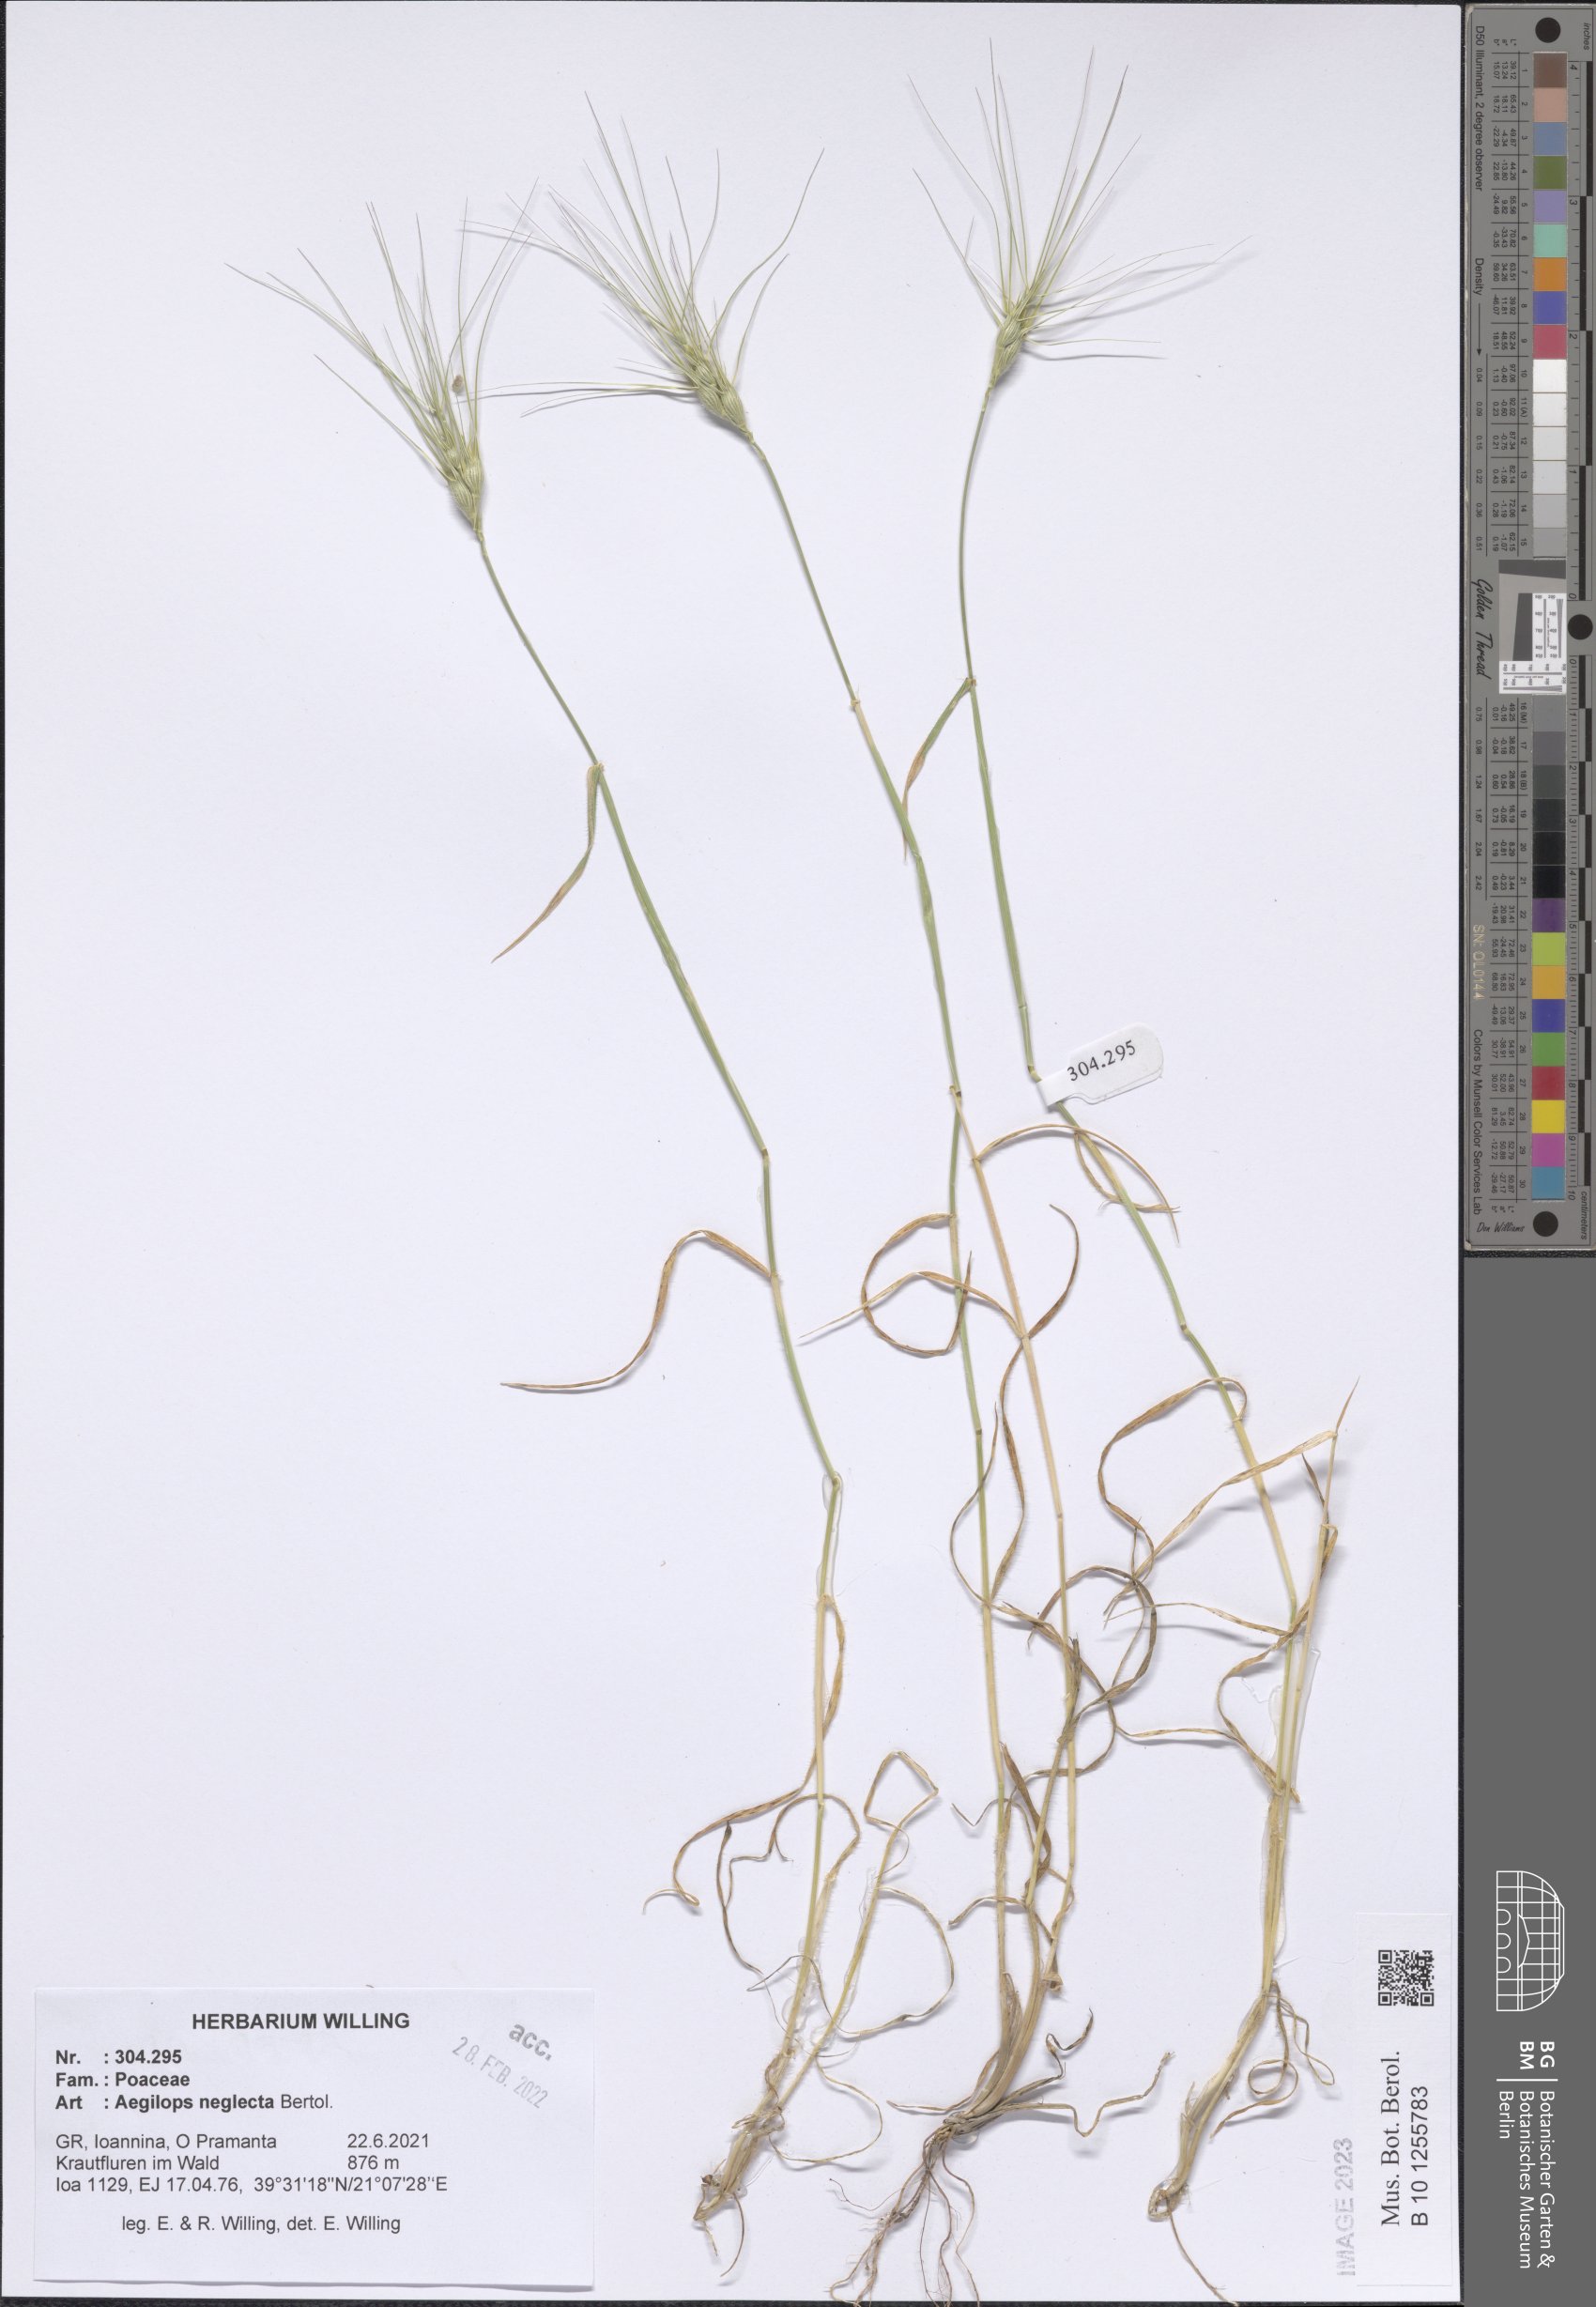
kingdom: Plantae
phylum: Tracheophyta
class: Liliopsida
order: Poales
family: Poaceae
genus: Aegilops
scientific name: Aegilops neglecta
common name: Three-awn goat grass
